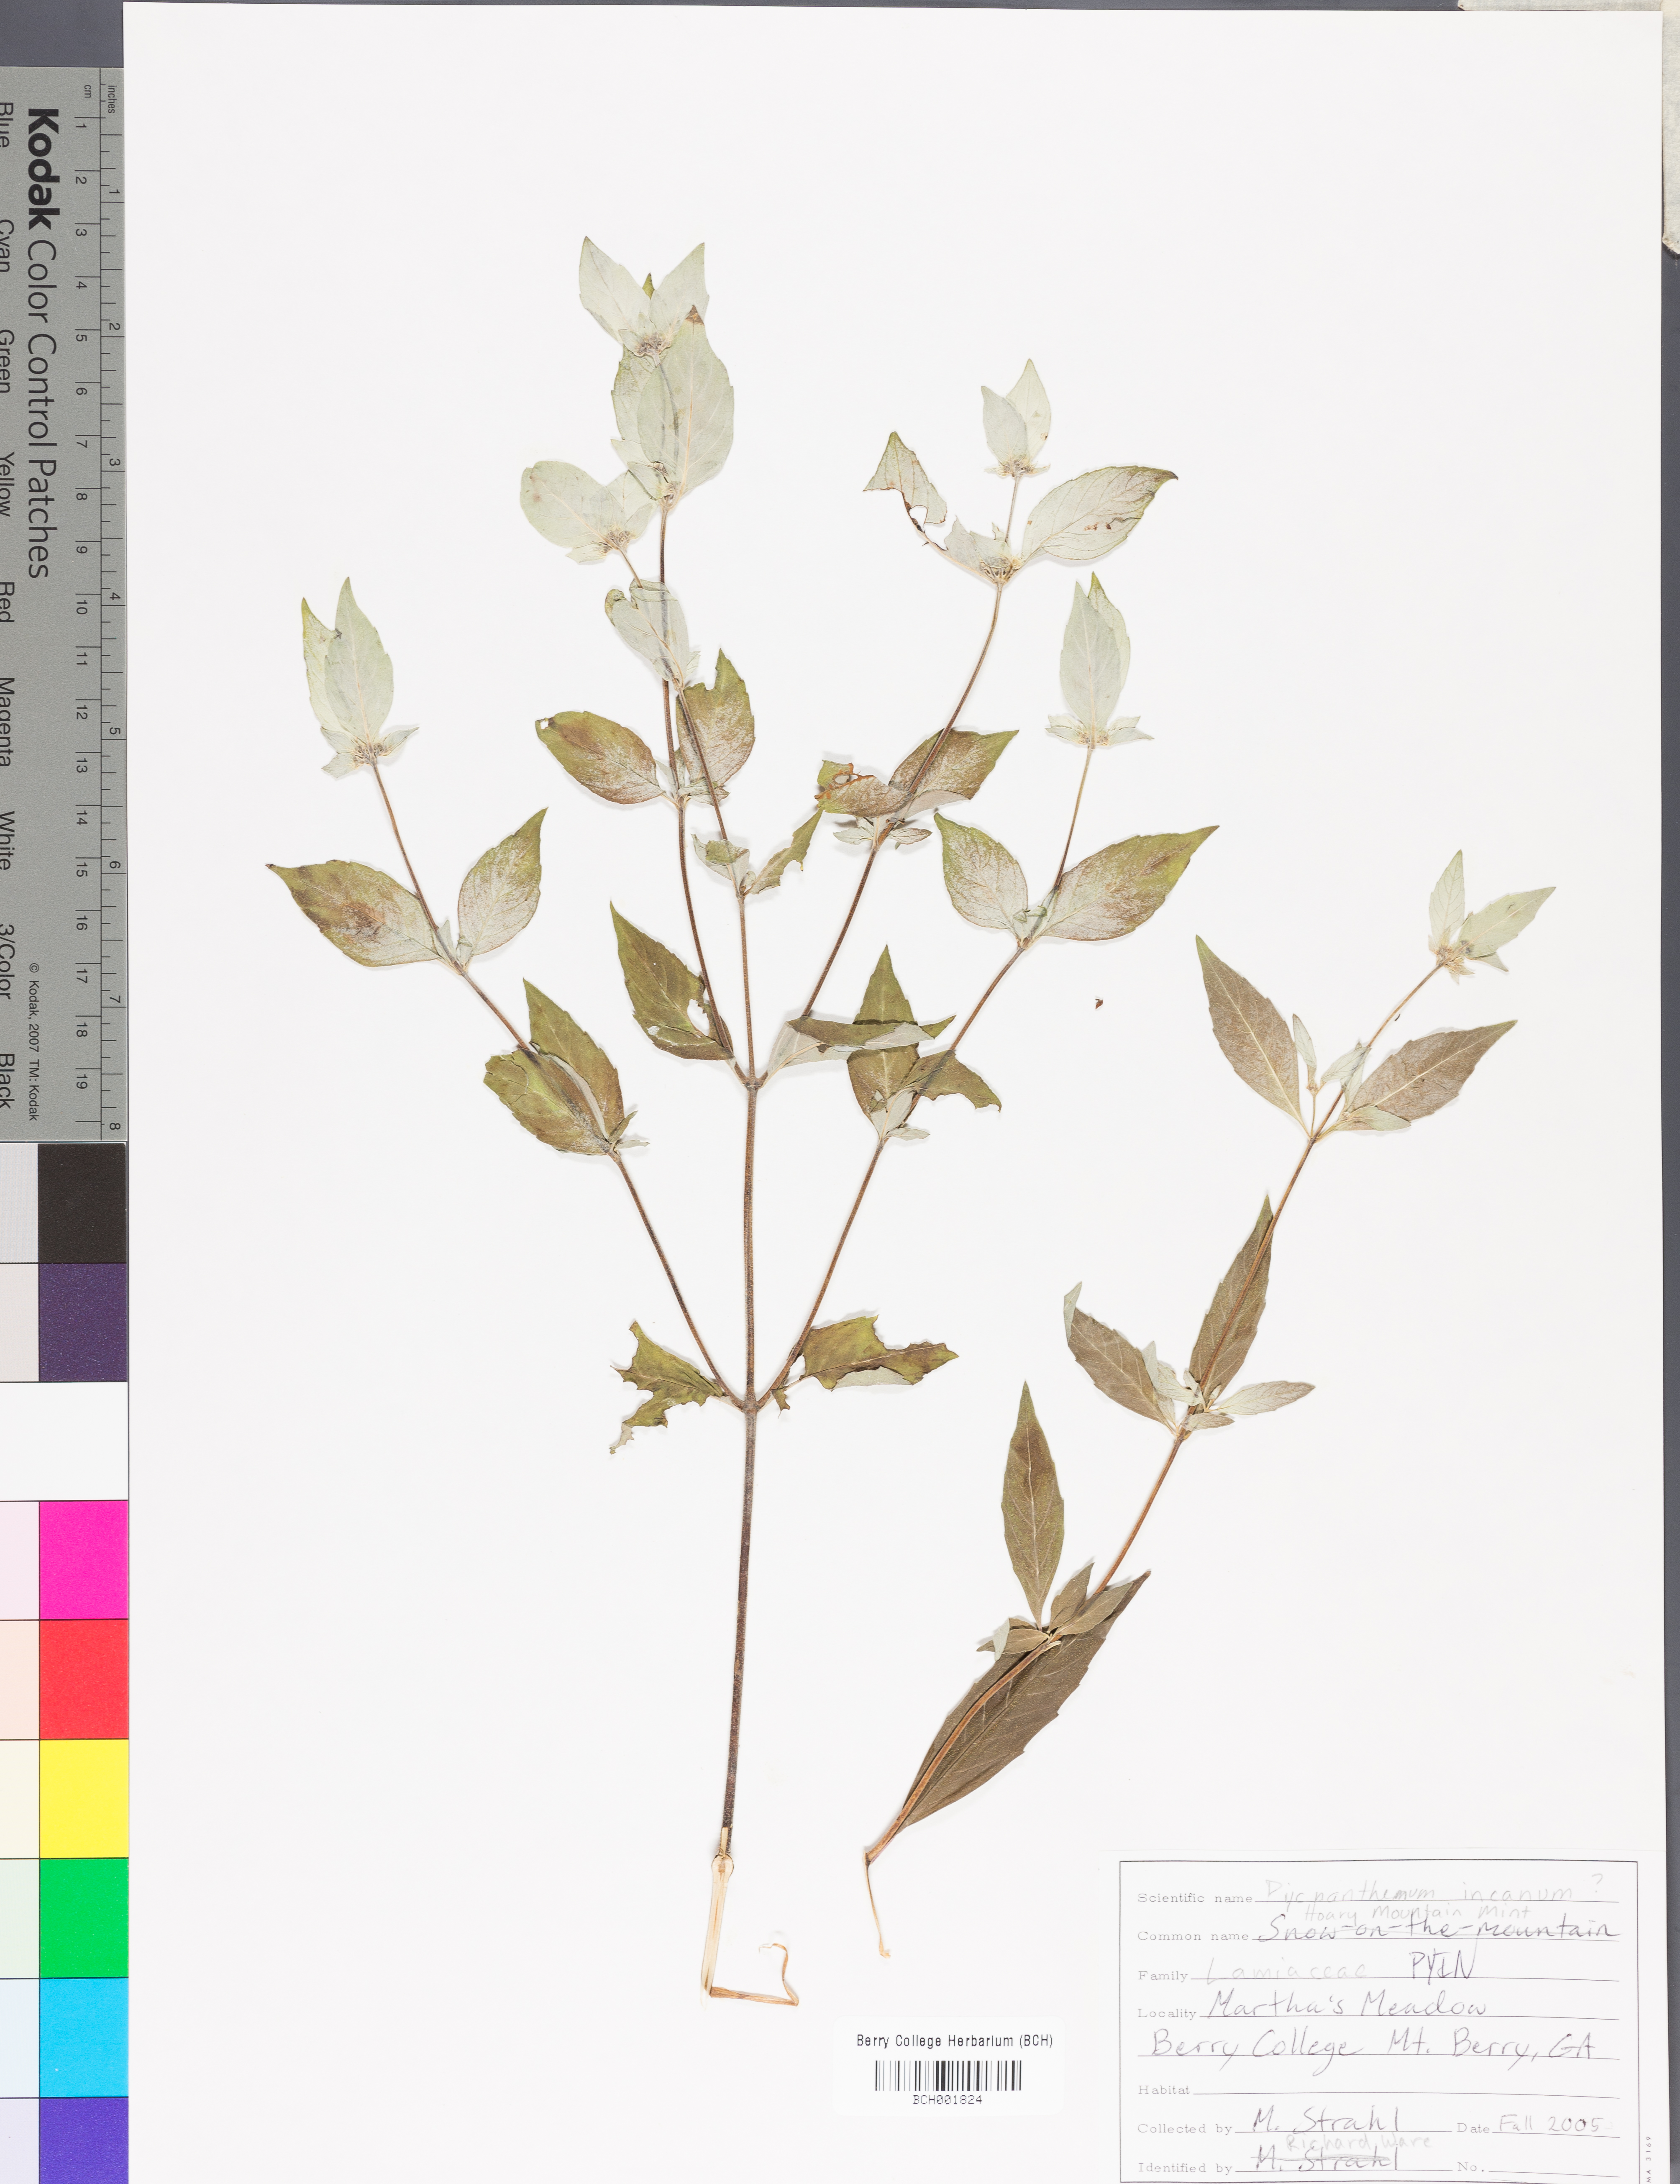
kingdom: Plantae
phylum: Tracheophyta
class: Magnoliopsida
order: Lamiales
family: Lamiaceae
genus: Pycnanthemum
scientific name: Pycnanthemum incanum
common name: Hoary mountain-mint
